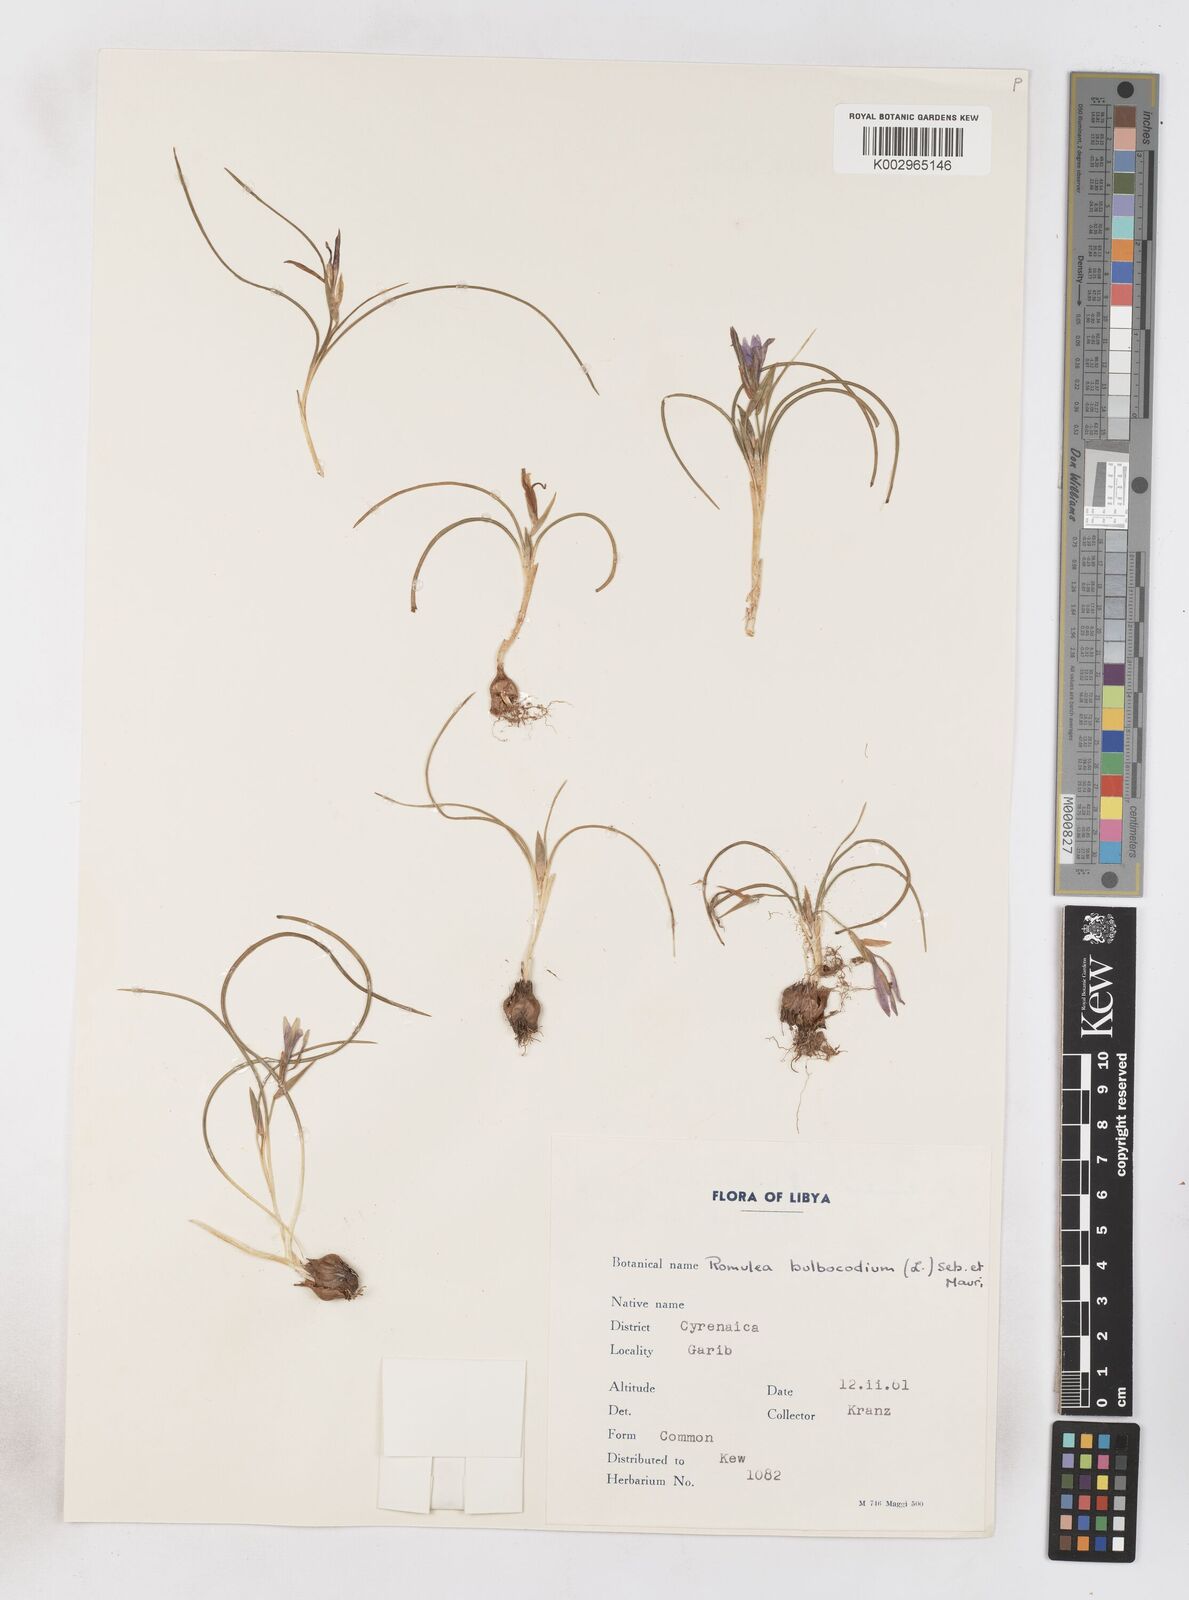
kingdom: Plantae
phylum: Tracheophyta
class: Liliopsida
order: Asparagales
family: Iridaceae
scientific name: Iridaceae
